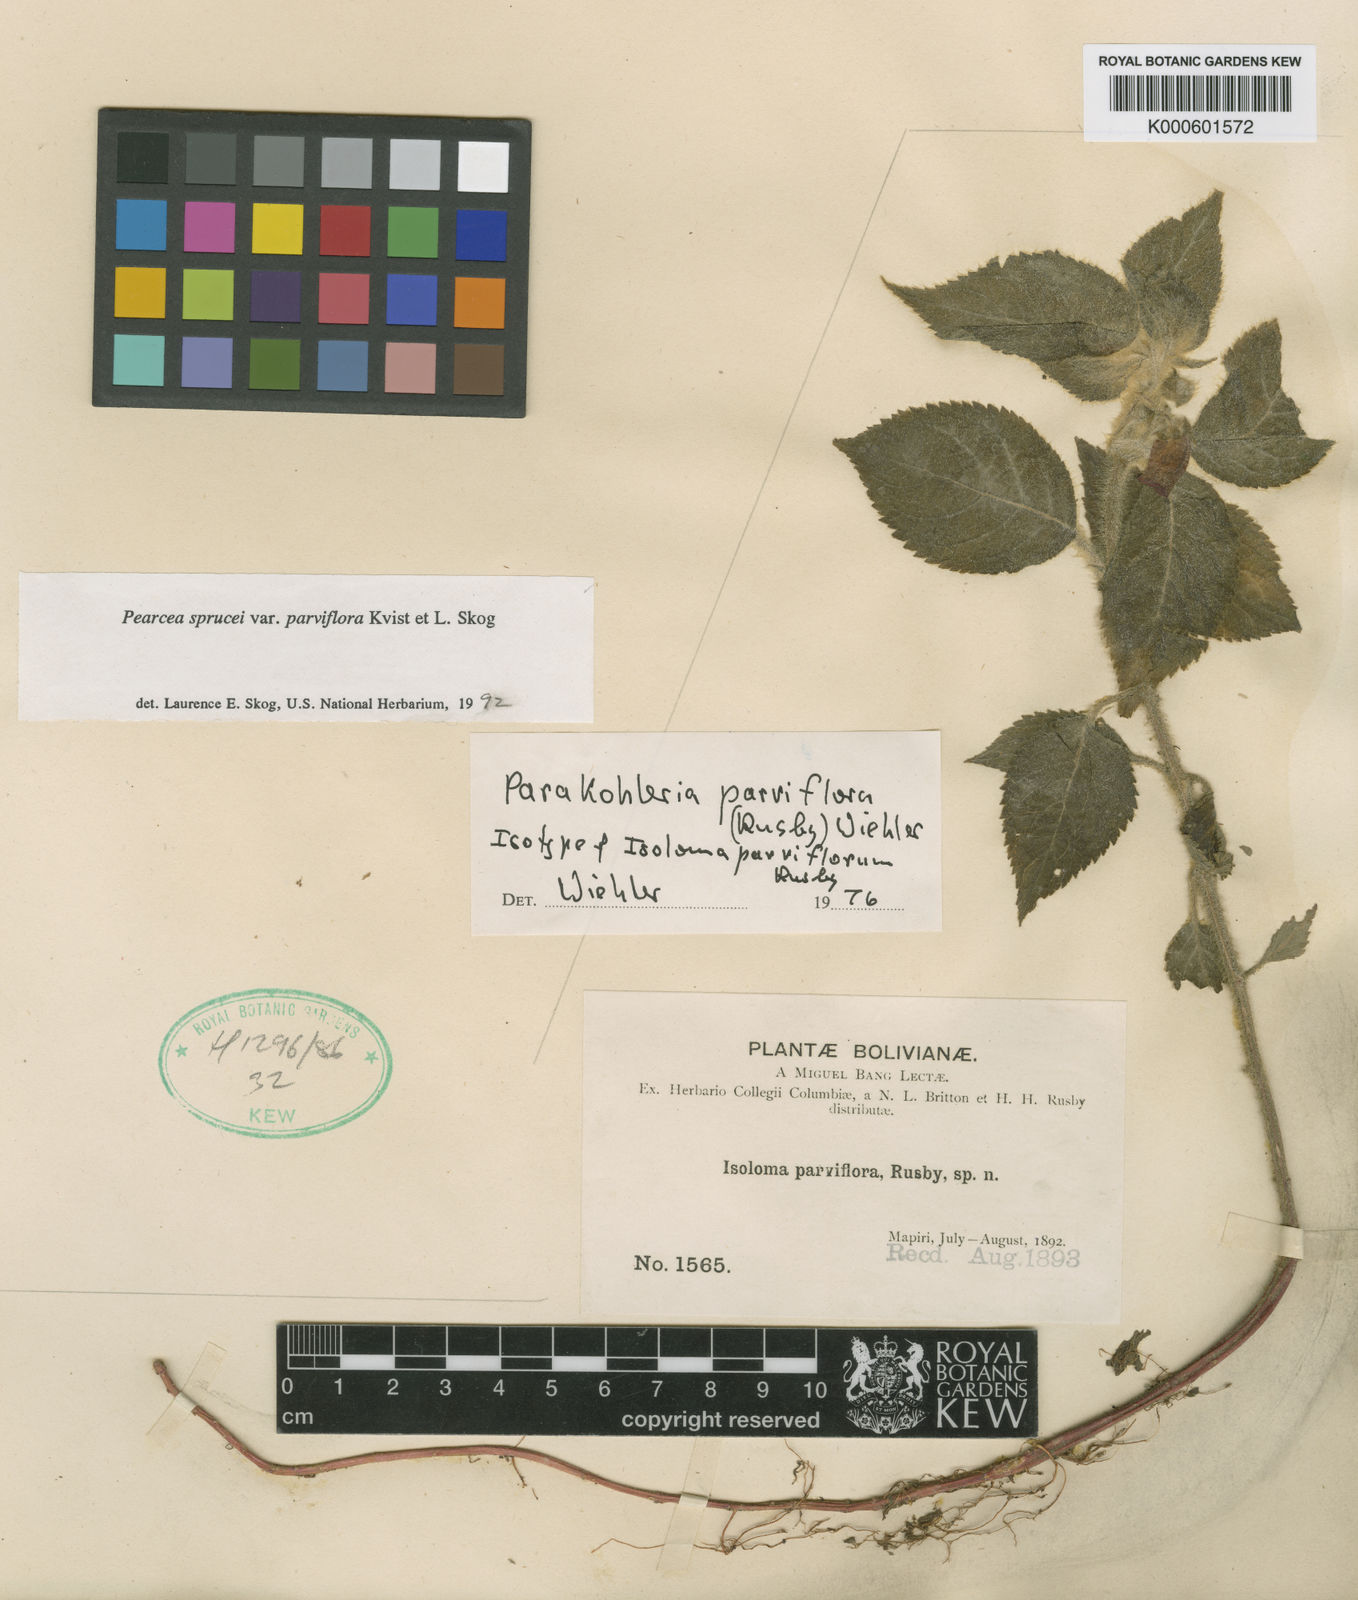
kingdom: Plantae
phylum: Tracheophyta
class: Magnoliopsida
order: Lamiales
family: Gesneriaceae
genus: Pearcea
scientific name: Pearcea sprucei
